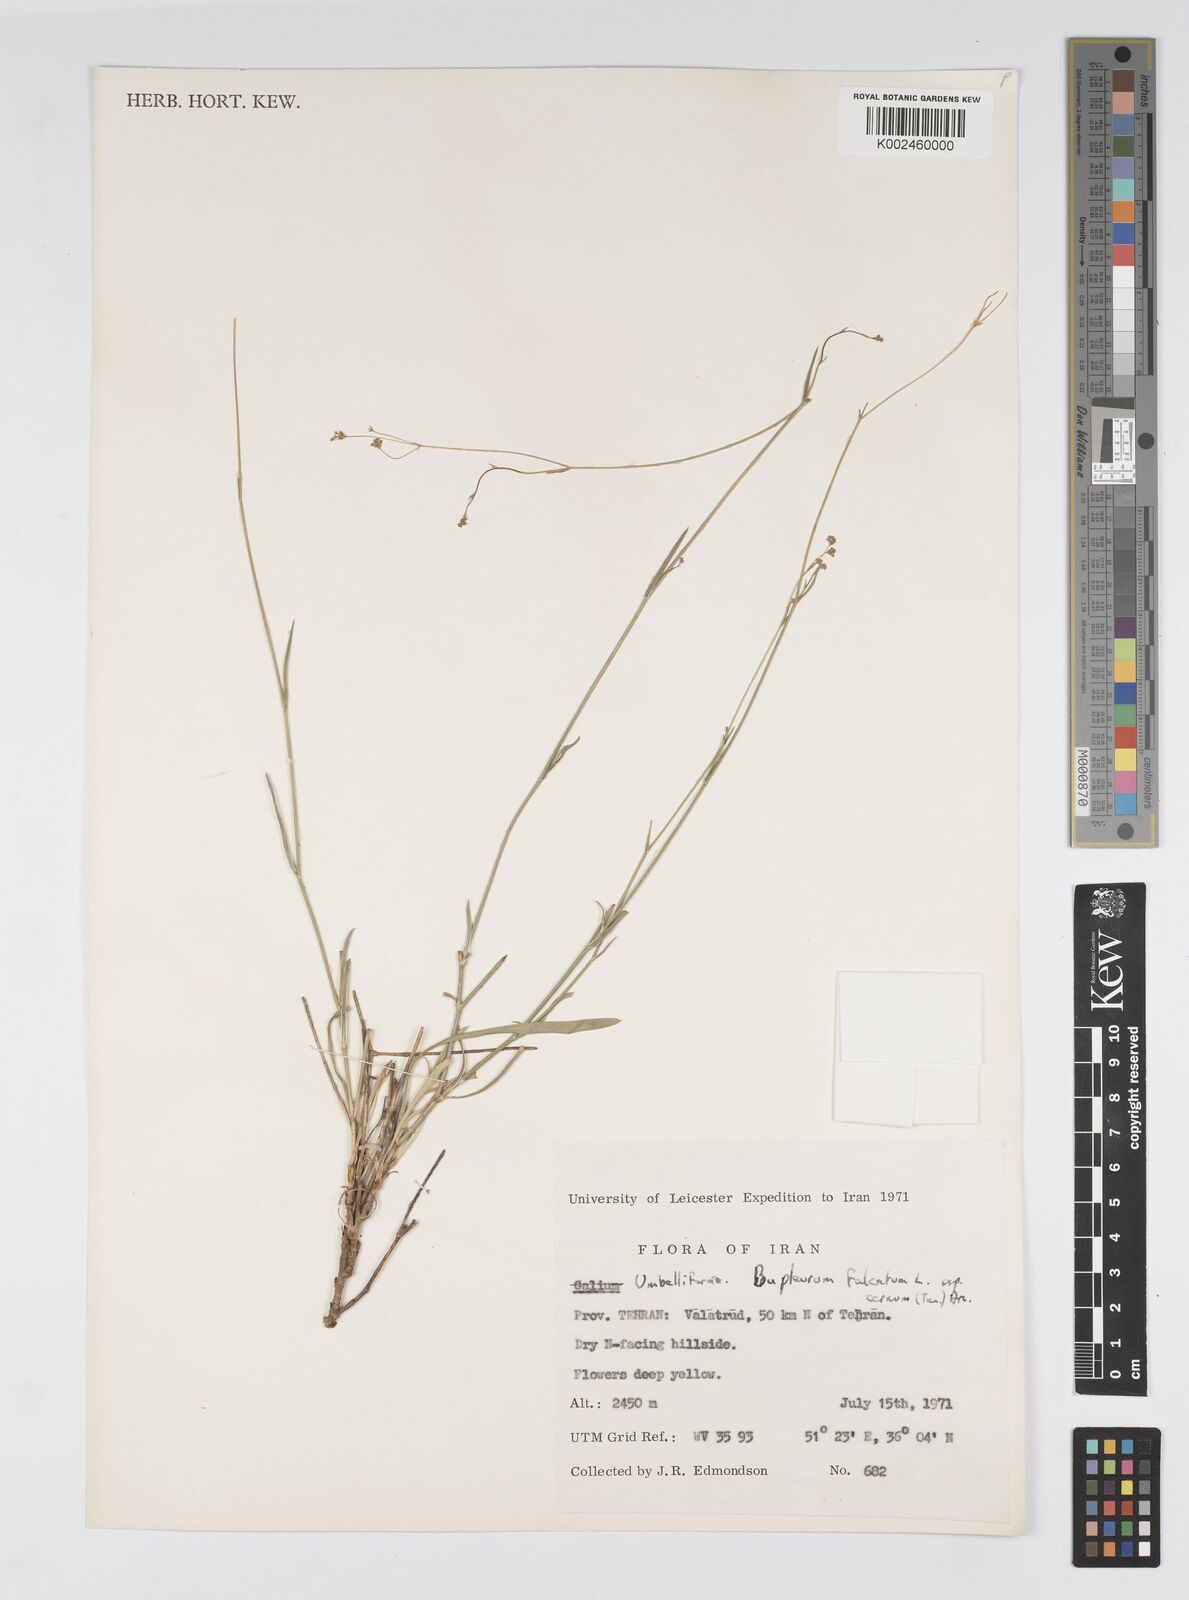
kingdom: Plantae
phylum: Tracheophyta
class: Magnoliopsida
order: Apiales
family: Apiaceae
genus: Bupleurum
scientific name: Bupleurum falcatum
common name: Sickle-leaved hare's-ear
